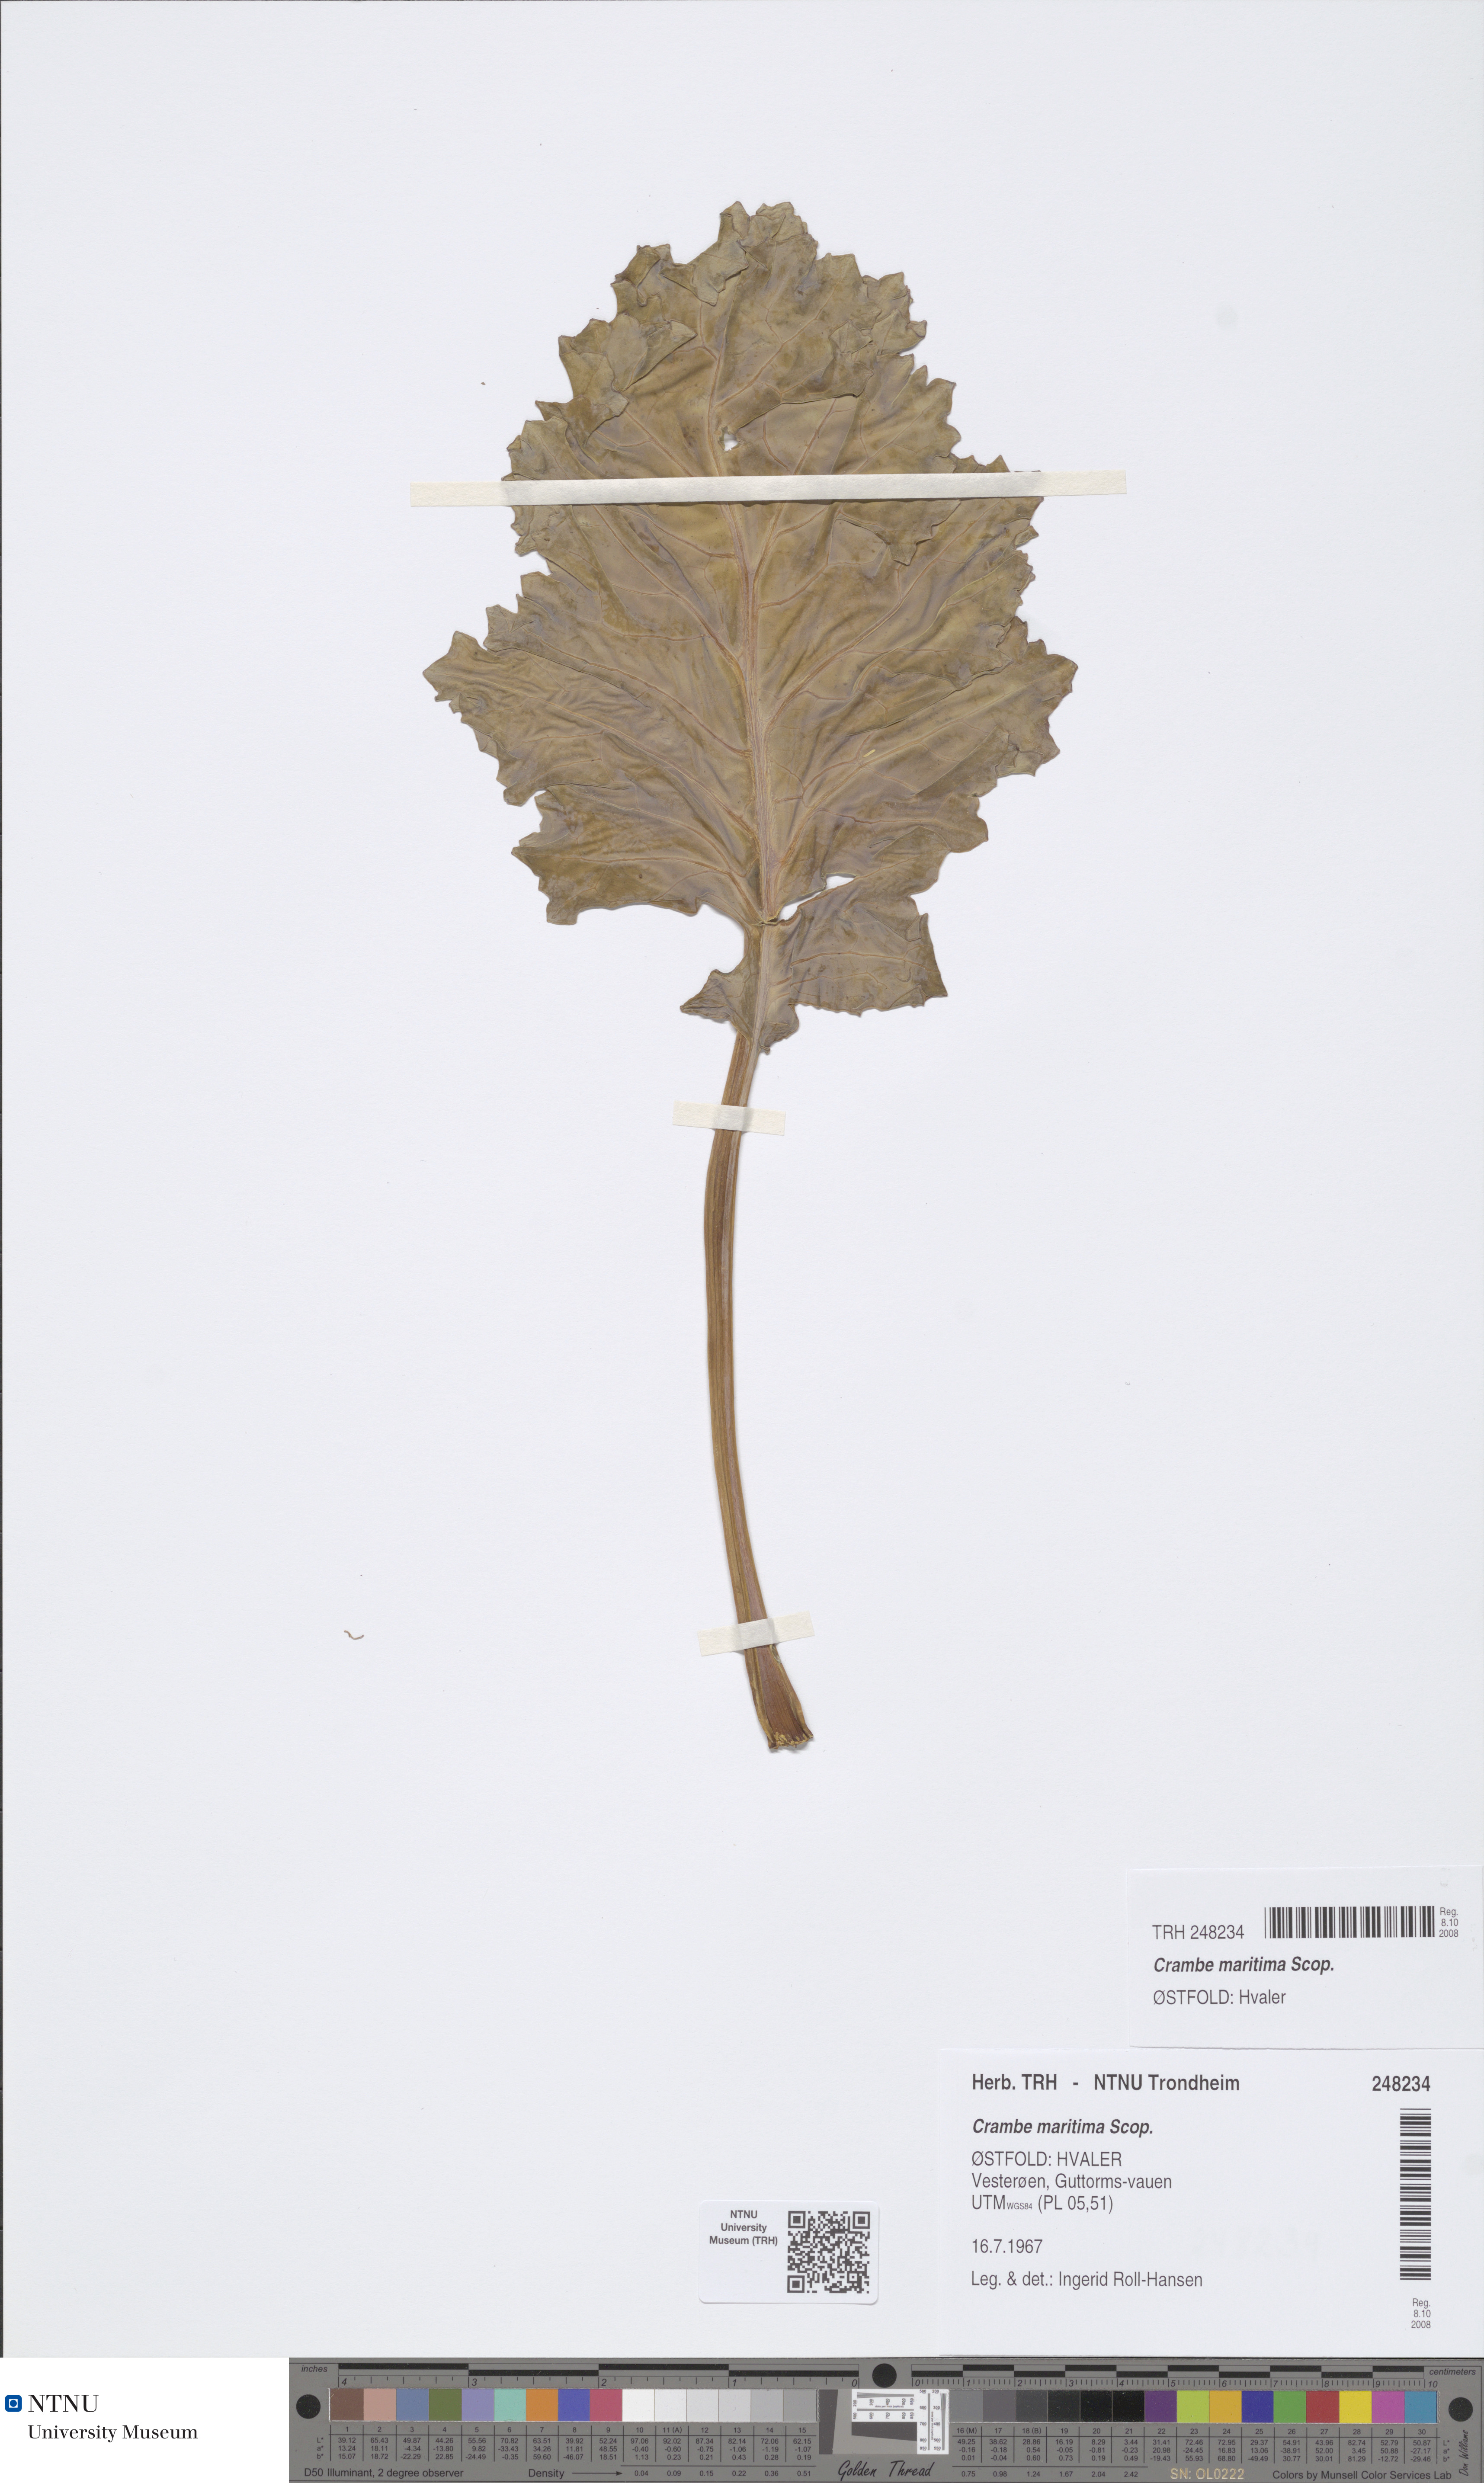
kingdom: Plantae
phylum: Tracheophyta
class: Magnoliopsida
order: Brassicales
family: Brassicaceae
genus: Crambe
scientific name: Crambe maritima
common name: Sea-kale
